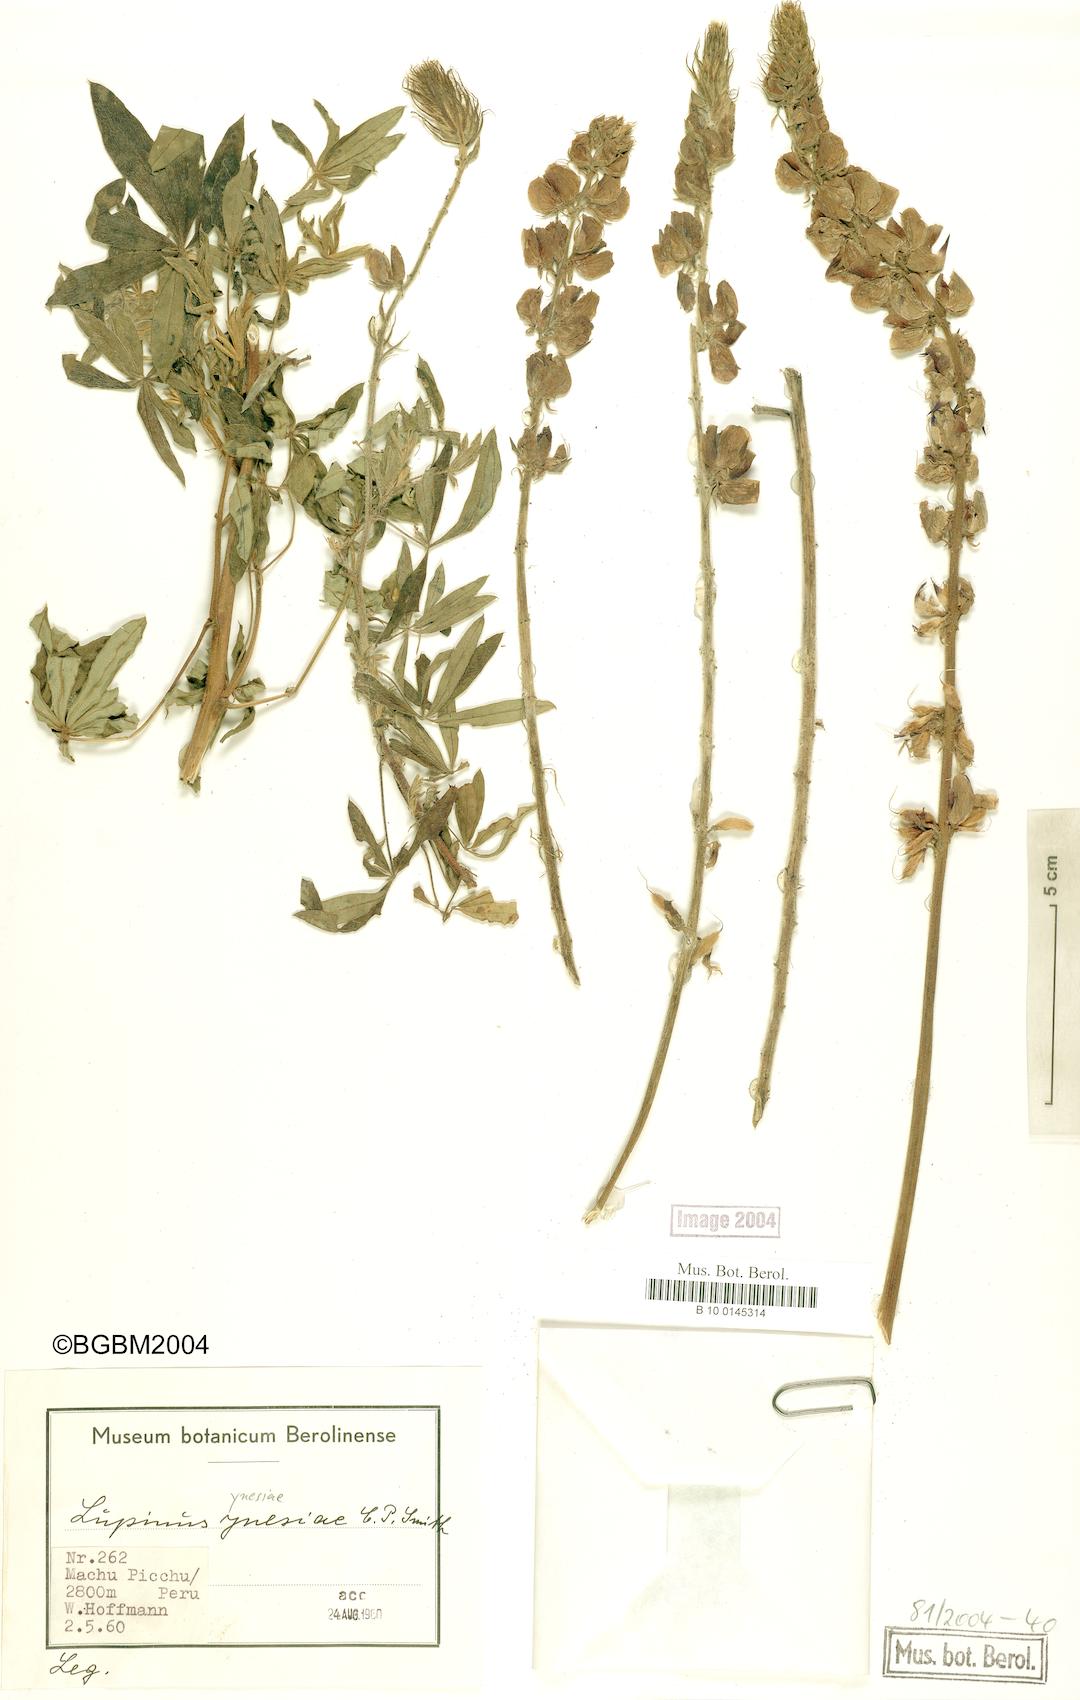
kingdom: Plantae
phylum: Tracheophyta
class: Magnoliopsida
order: Fabales
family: Fabaceae
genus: Lupinus
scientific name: Lupinus ynesiae
